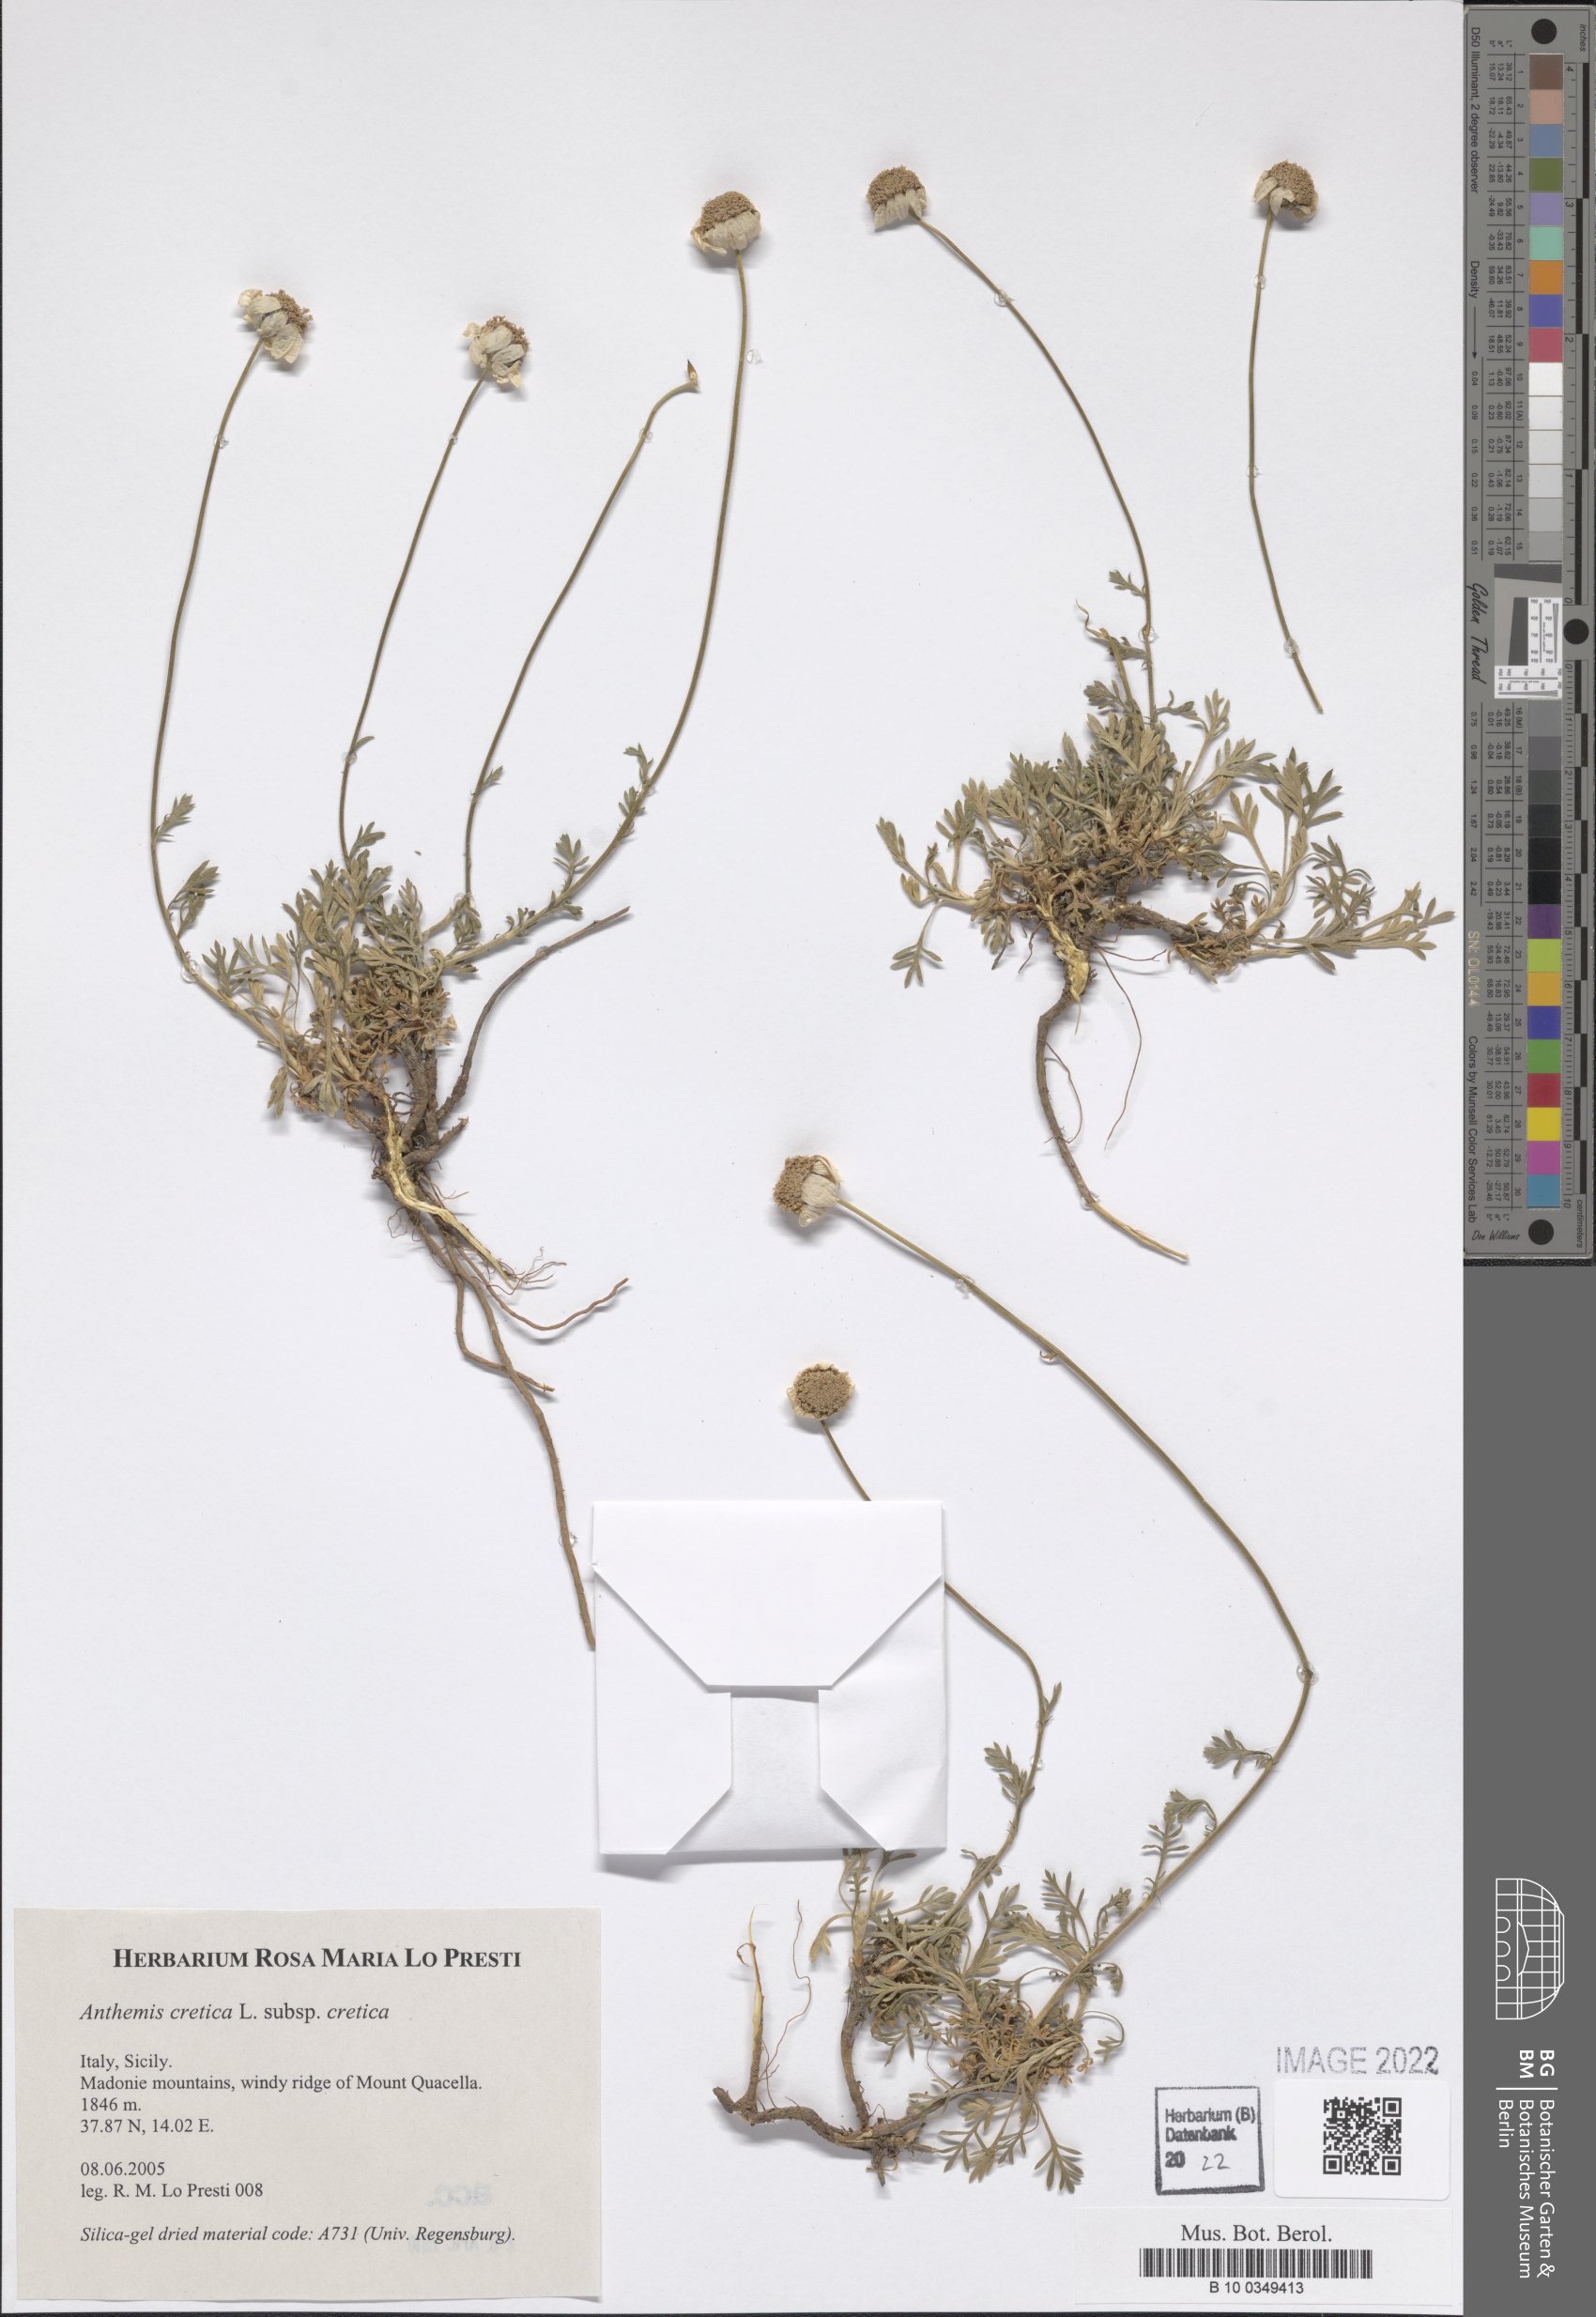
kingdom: Plantae
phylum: Tracheophyta
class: Magnoliopsida
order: Asterales
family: Asteraceae
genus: Anthemis
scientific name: Anthemis cretica
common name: Mountain dog-daisy
